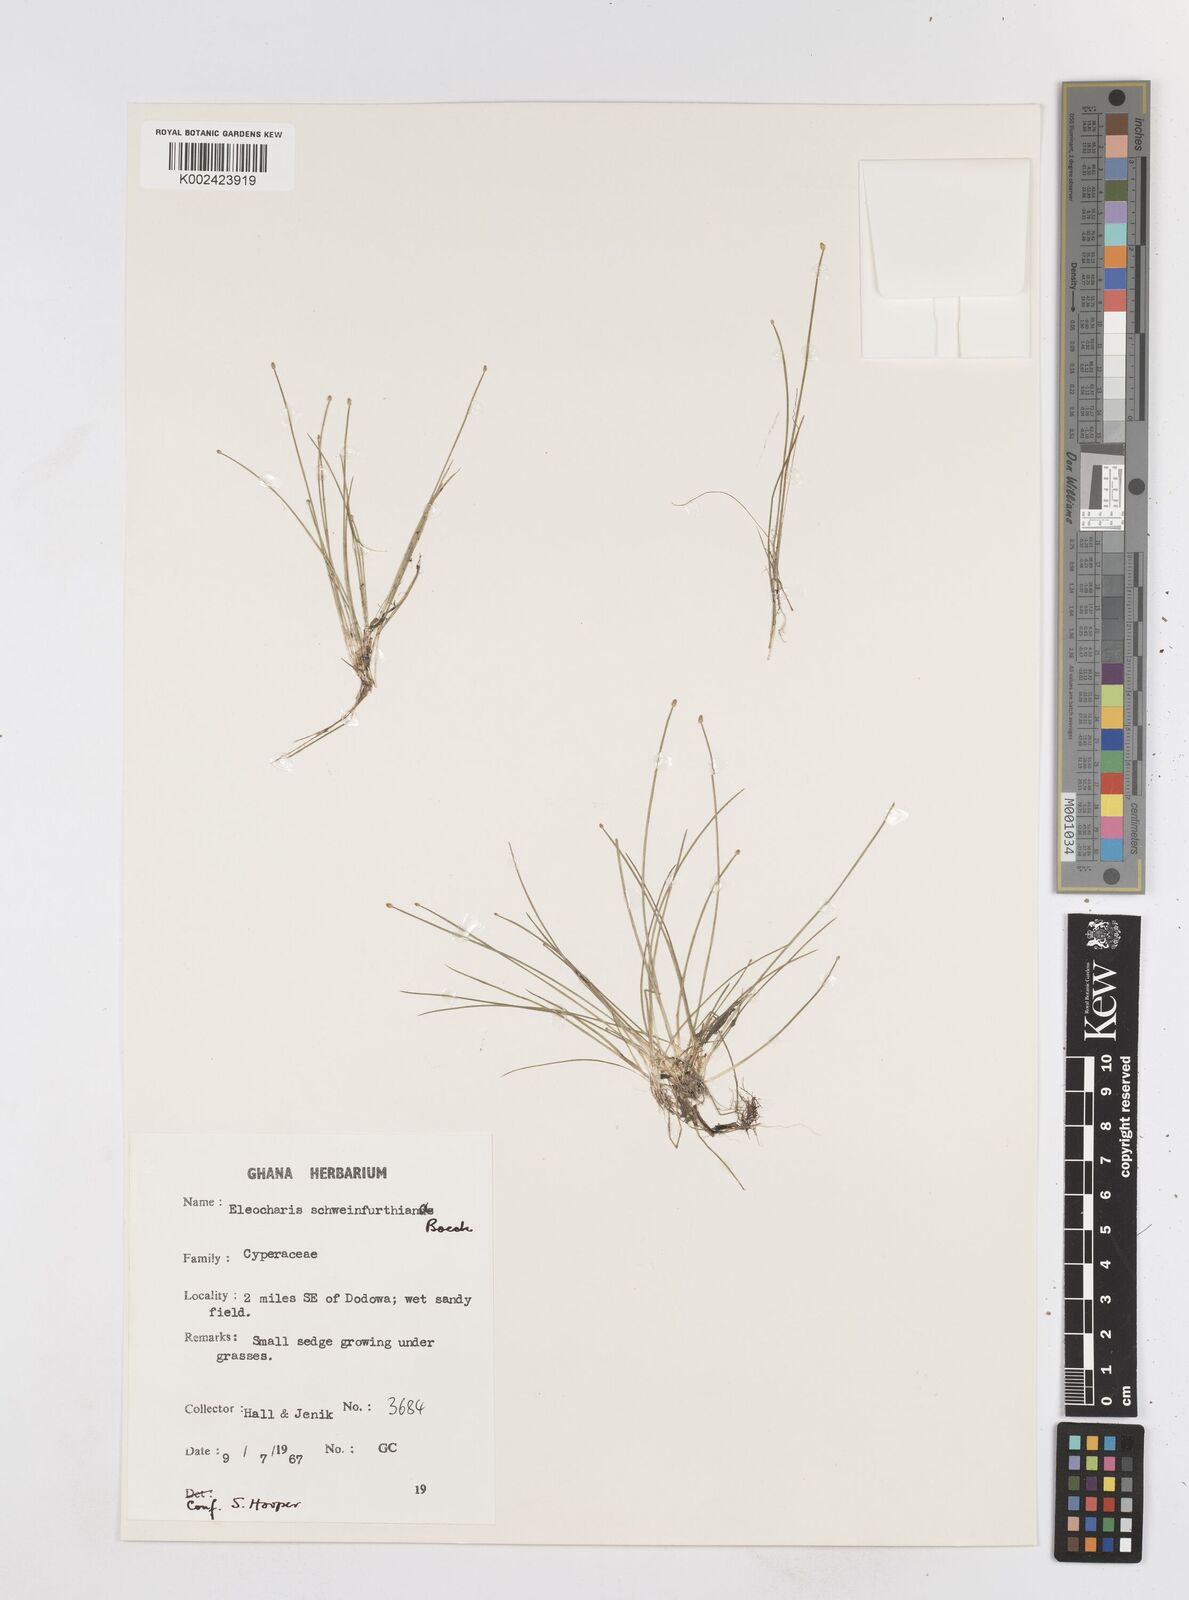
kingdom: Plantae
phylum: Tracheophyta
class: Liliopsida
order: Poales
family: Cyperaceae
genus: Eleocharis
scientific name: Eleocharis setifolia
